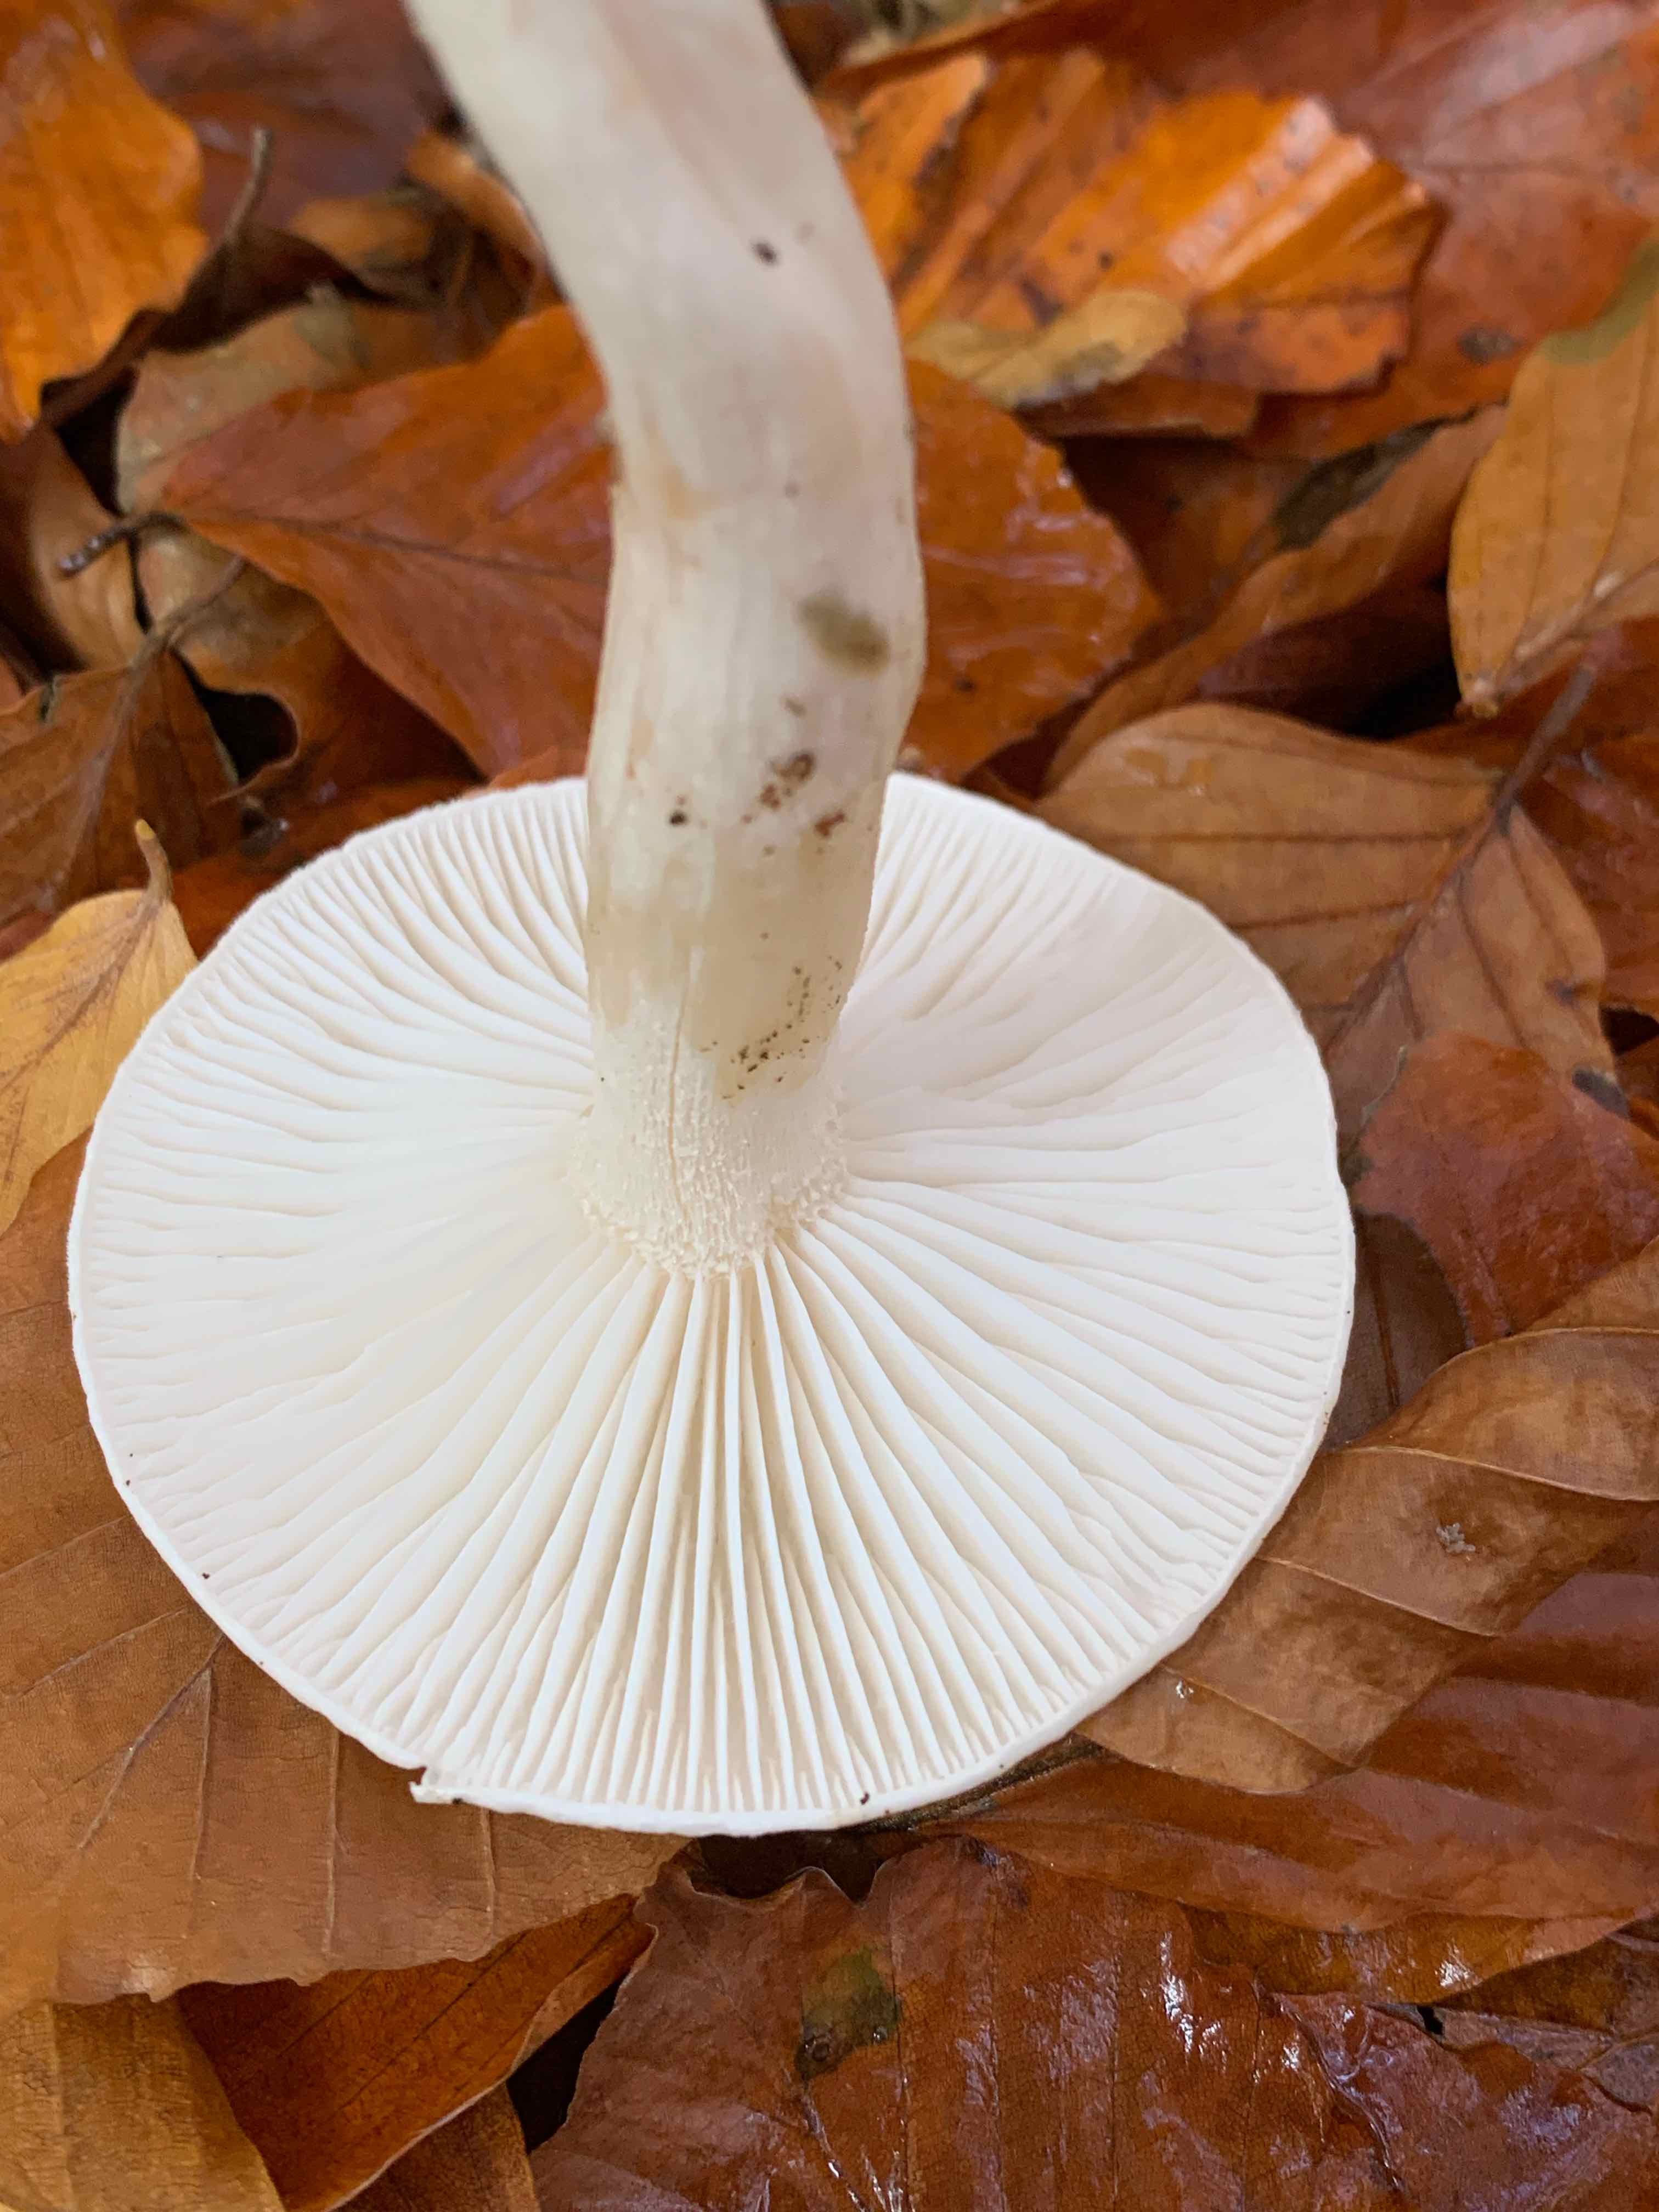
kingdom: Fungi
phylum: Basidiomycota
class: Agaricomycetes
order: Agaricales
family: Hygrophoraceae
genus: Hygrophorus
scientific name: Hygrophorus eburneus
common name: elfenbens-sneglehat
